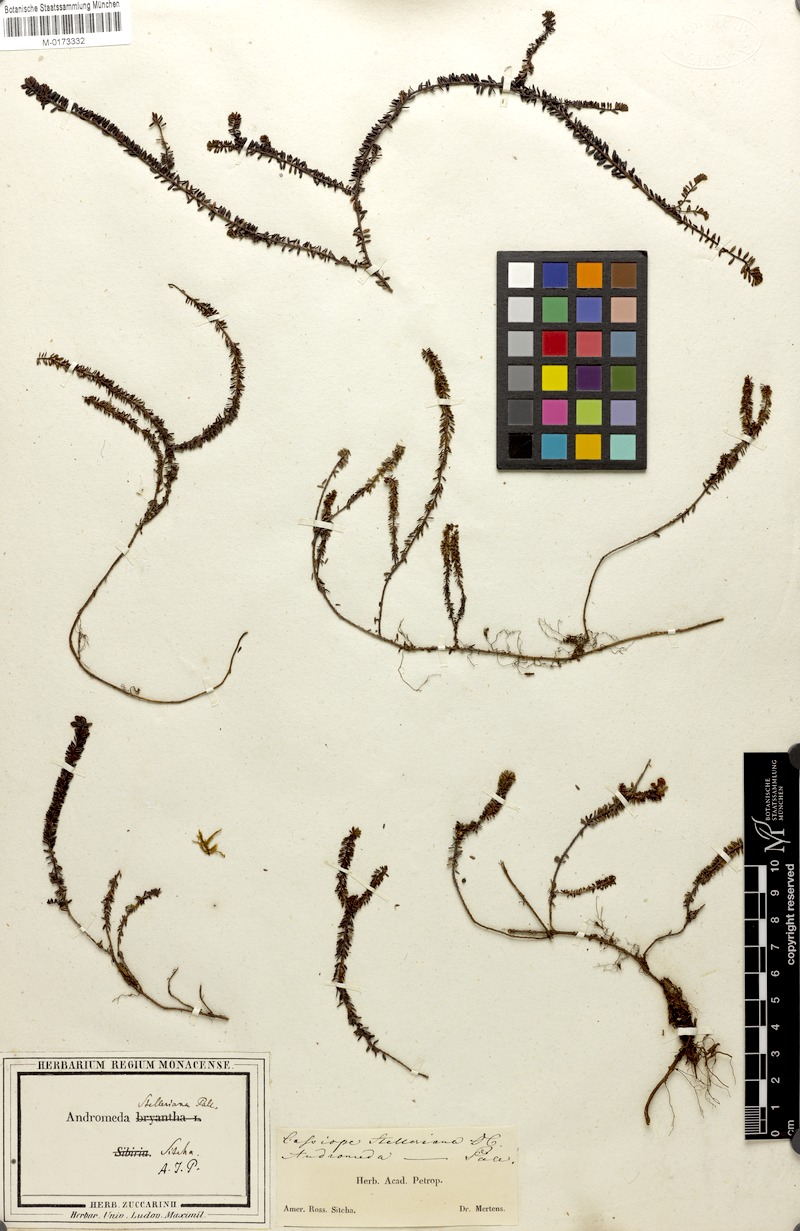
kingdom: Plantae
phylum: Tracheophyta
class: Magnoliopsida
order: Ericales
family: Ericaceae
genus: Harrimanella
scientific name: Harrimanella stelleriana
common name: Alaska bell heather
